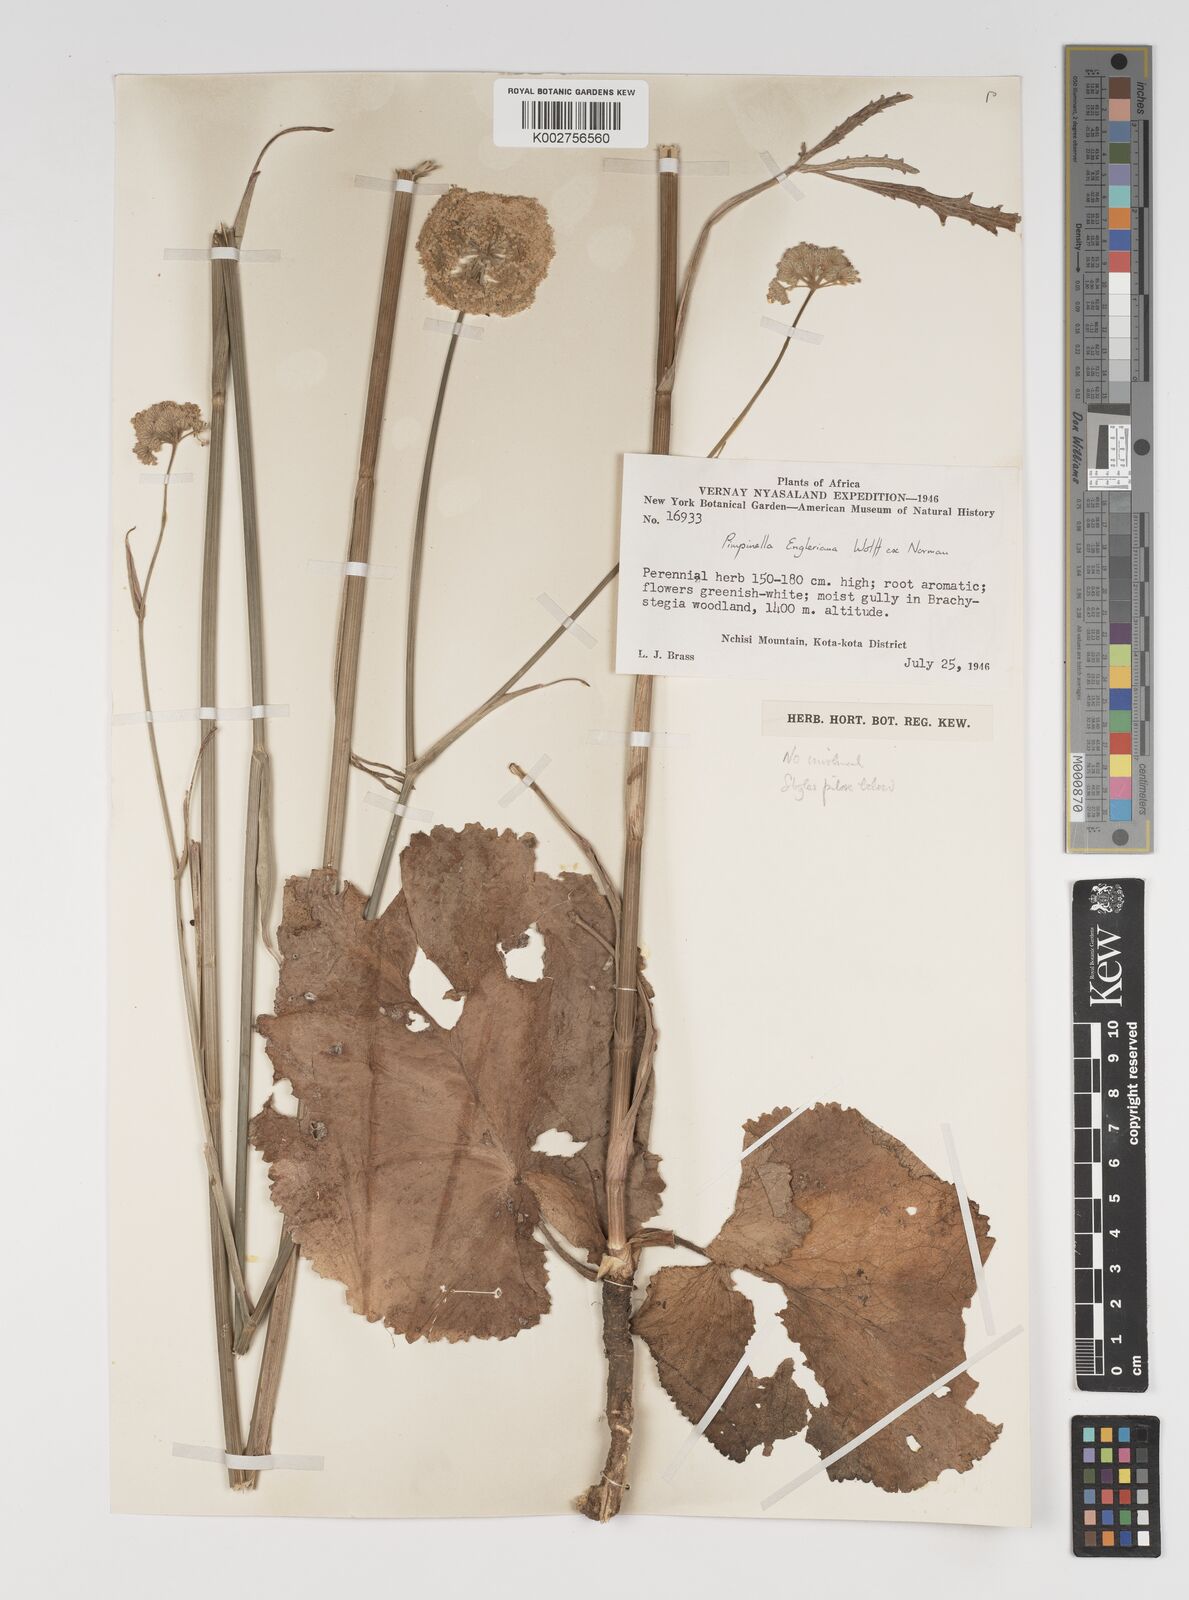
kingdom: Plantae
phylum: Tracheophyta
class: Magnoliopsida
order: Apiales
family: Apiaceae
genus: Pimpinella
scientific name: Pimpinella kingdon-wardii
